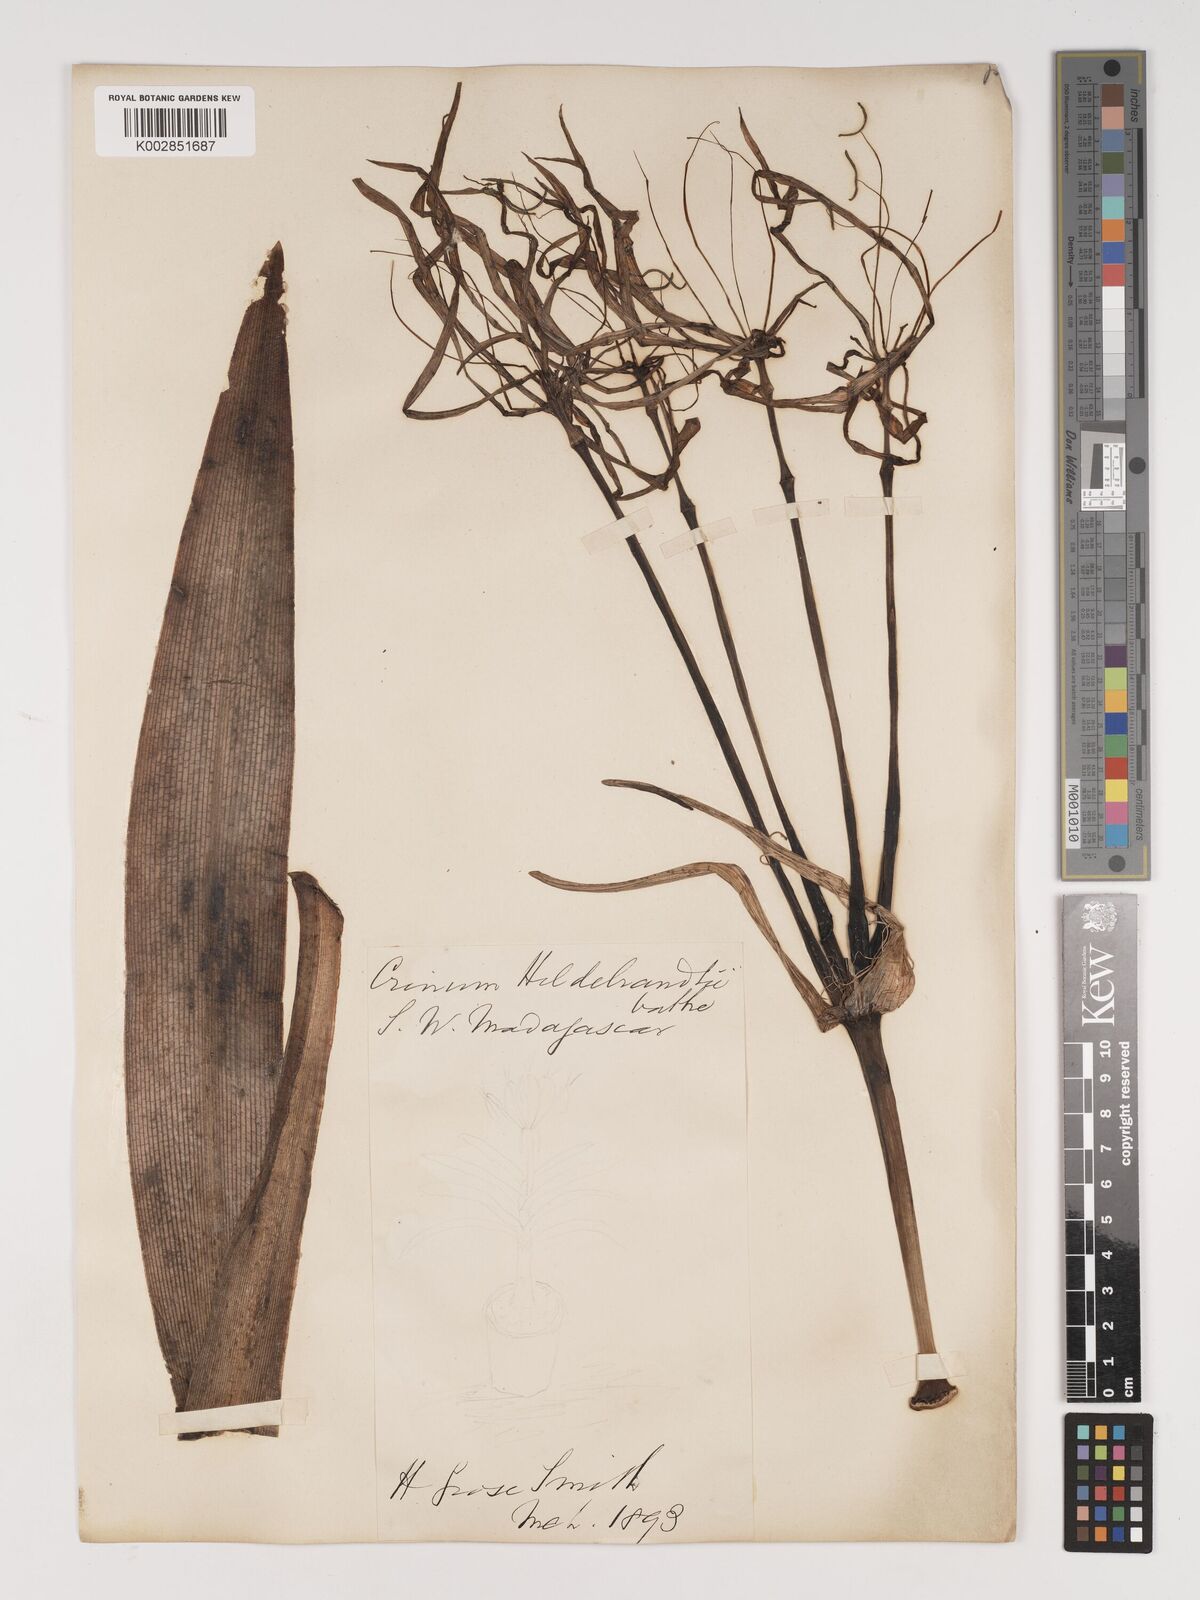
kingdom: Plantae
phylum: Tracheophyta
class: Liliopsida
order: Asparagales
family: Amaryllidaceae
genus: Crinum
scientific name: Crinum hildebrandtii
